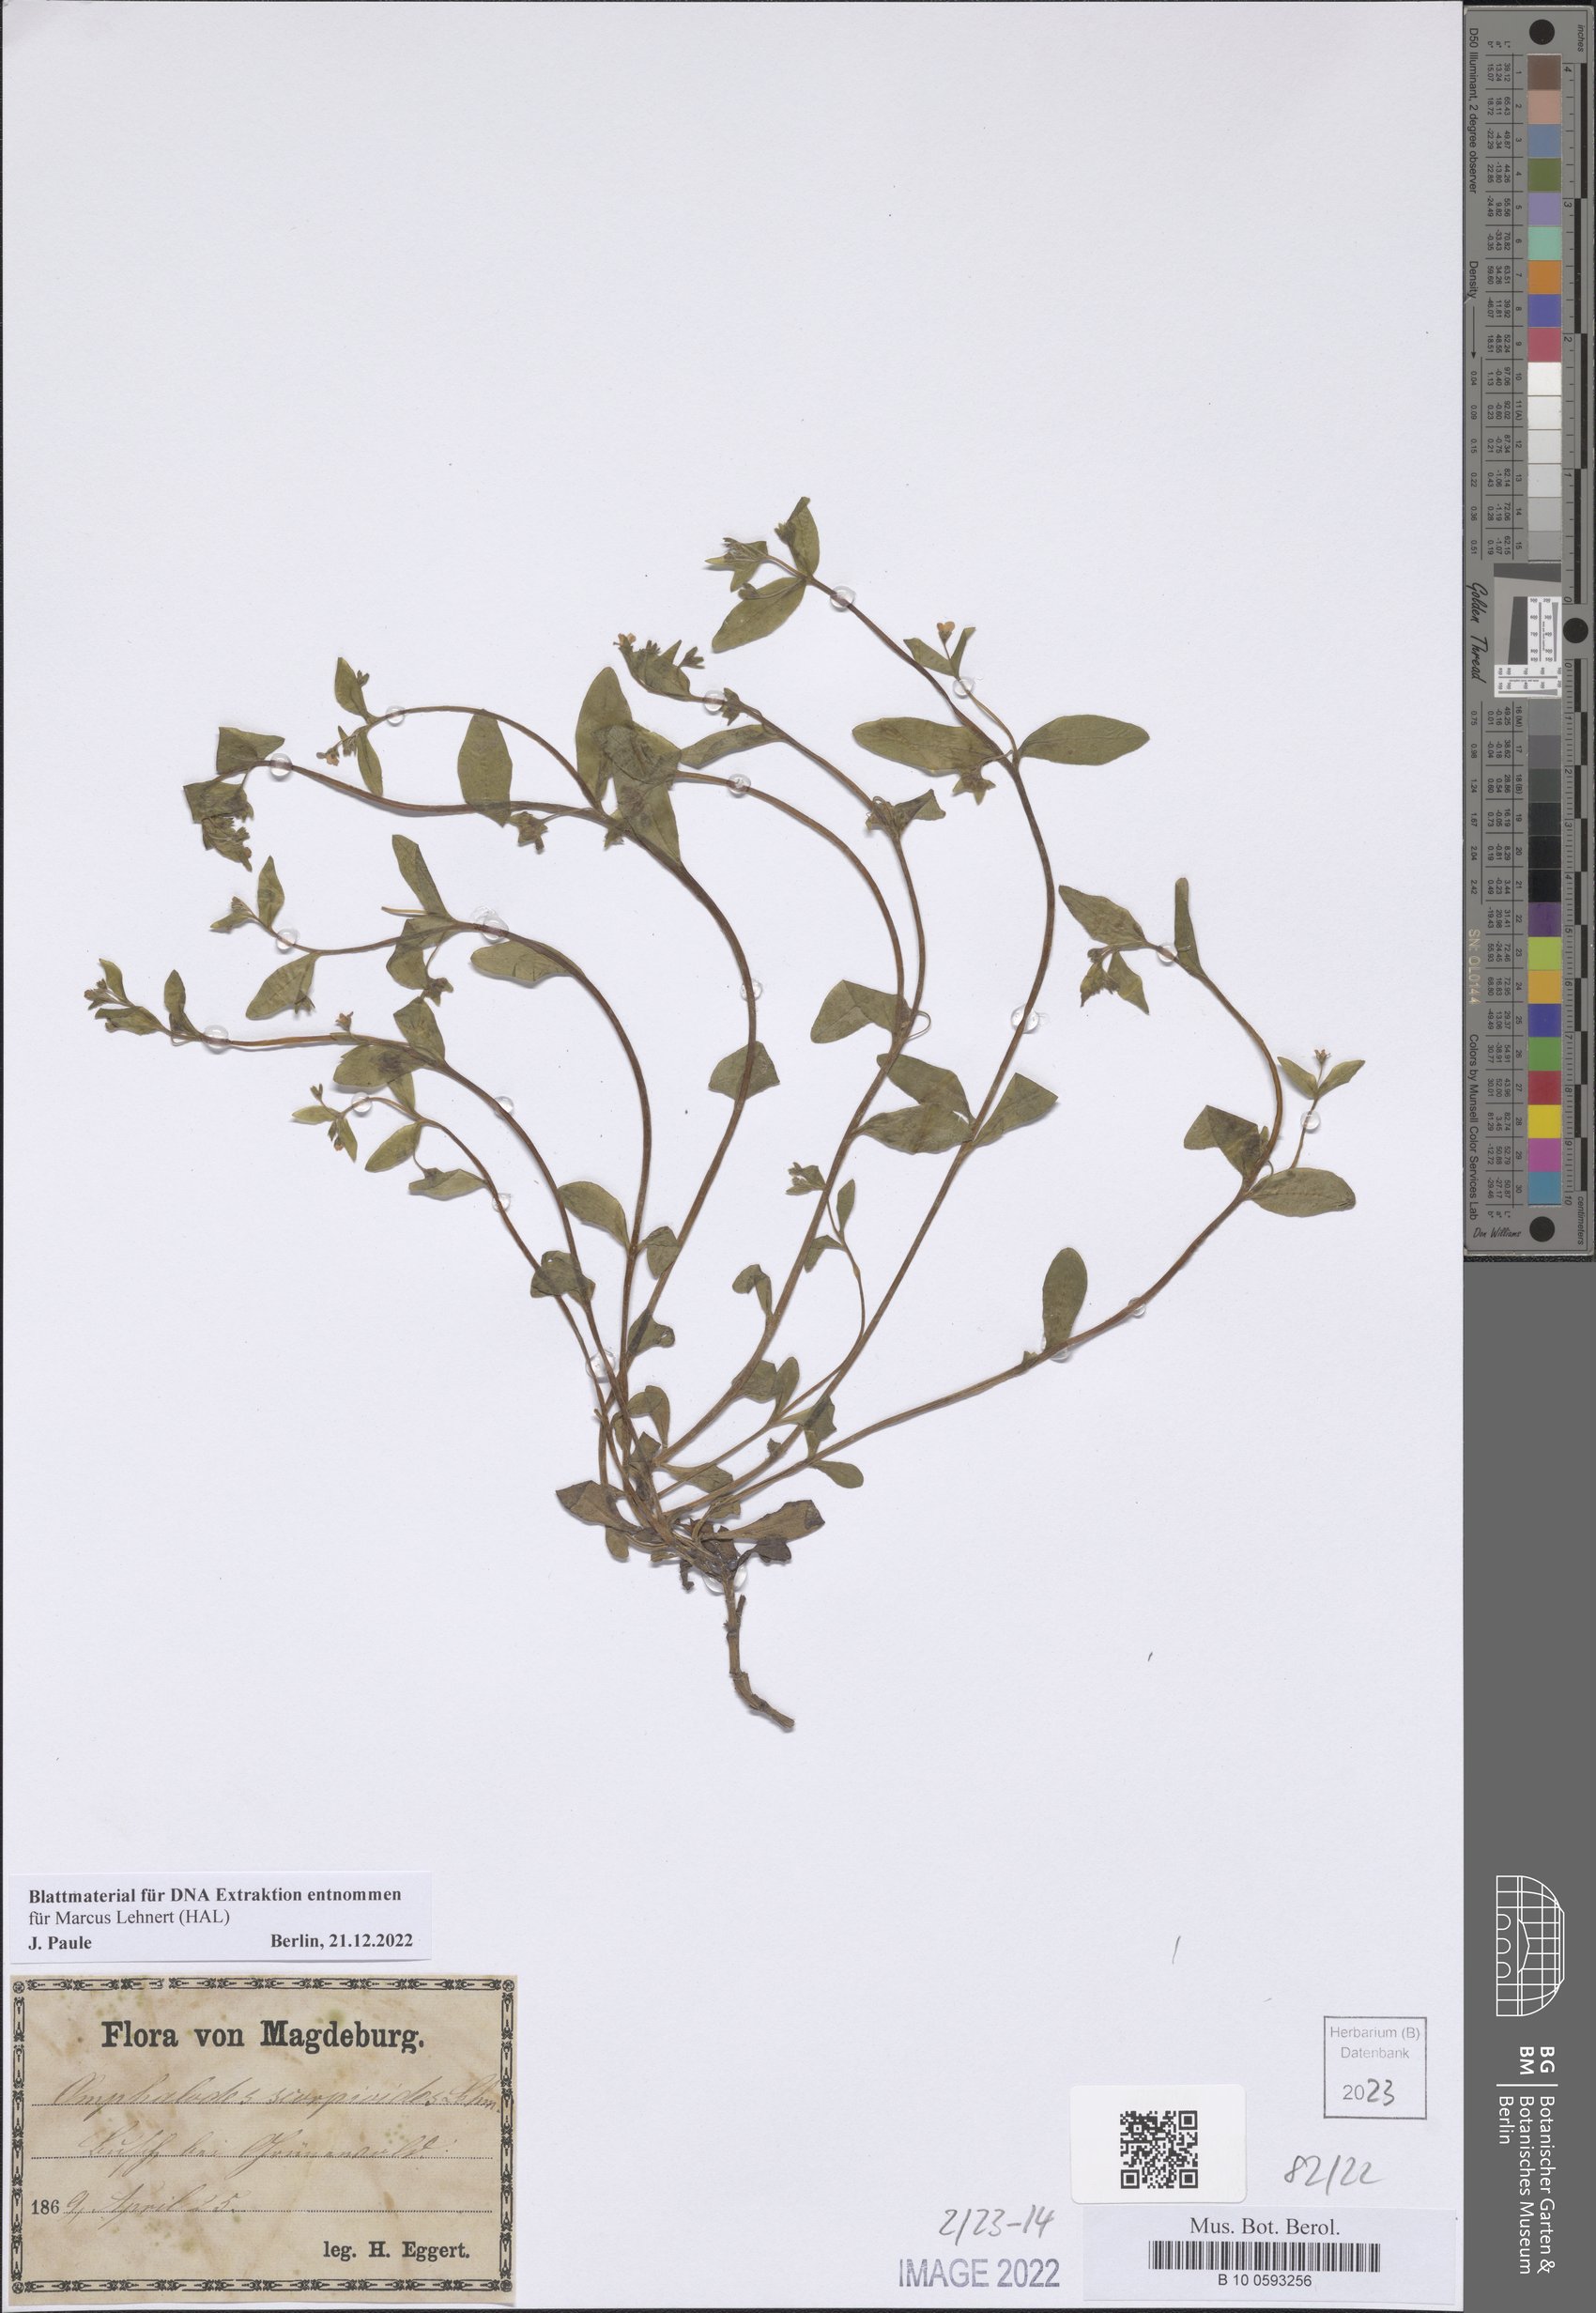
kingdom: Plantae
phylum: Tracheophyta
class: Magnoliopsida
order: Boraginales
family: Boraginaceae
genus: Memoremea
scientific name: Memoremea scorpioides
